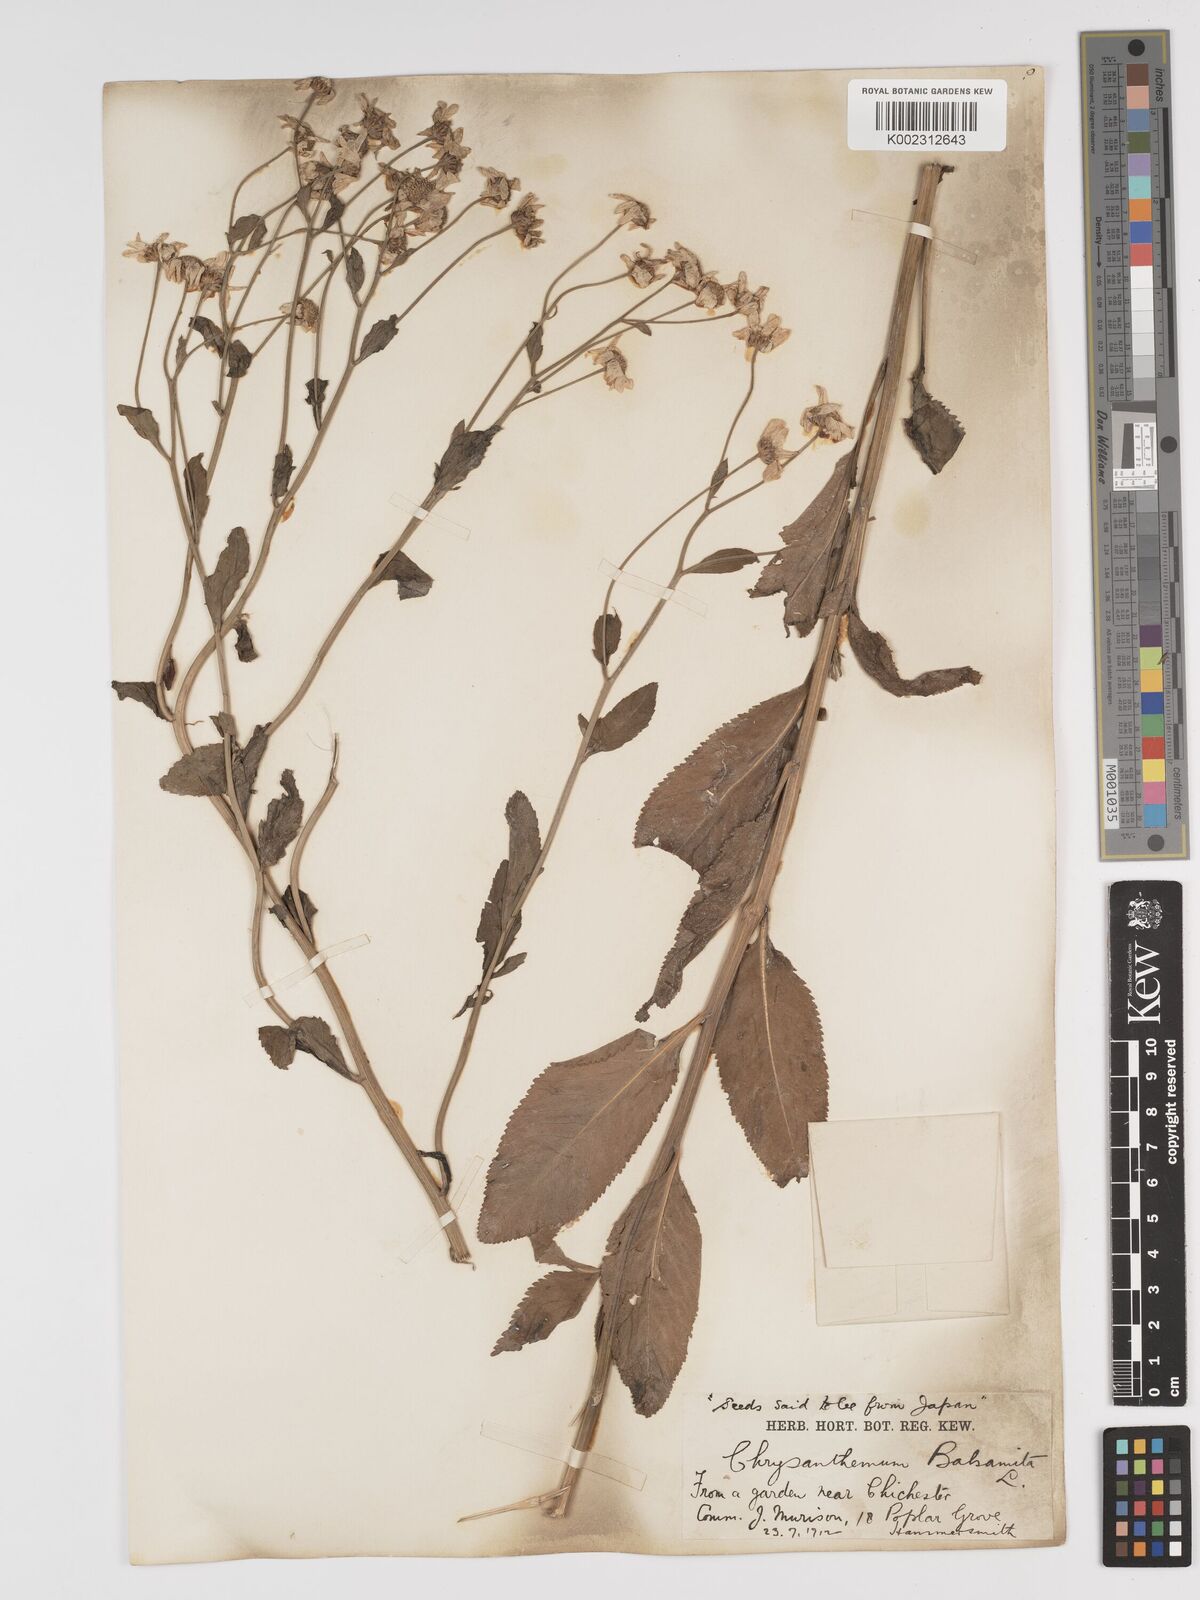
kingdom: Plantae
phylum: Tracheophyta
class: Magnoliopsida
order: Asterales
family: Asteraceae
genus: Tanacetum
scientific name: Tanacetum balsamita
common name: Costmary
